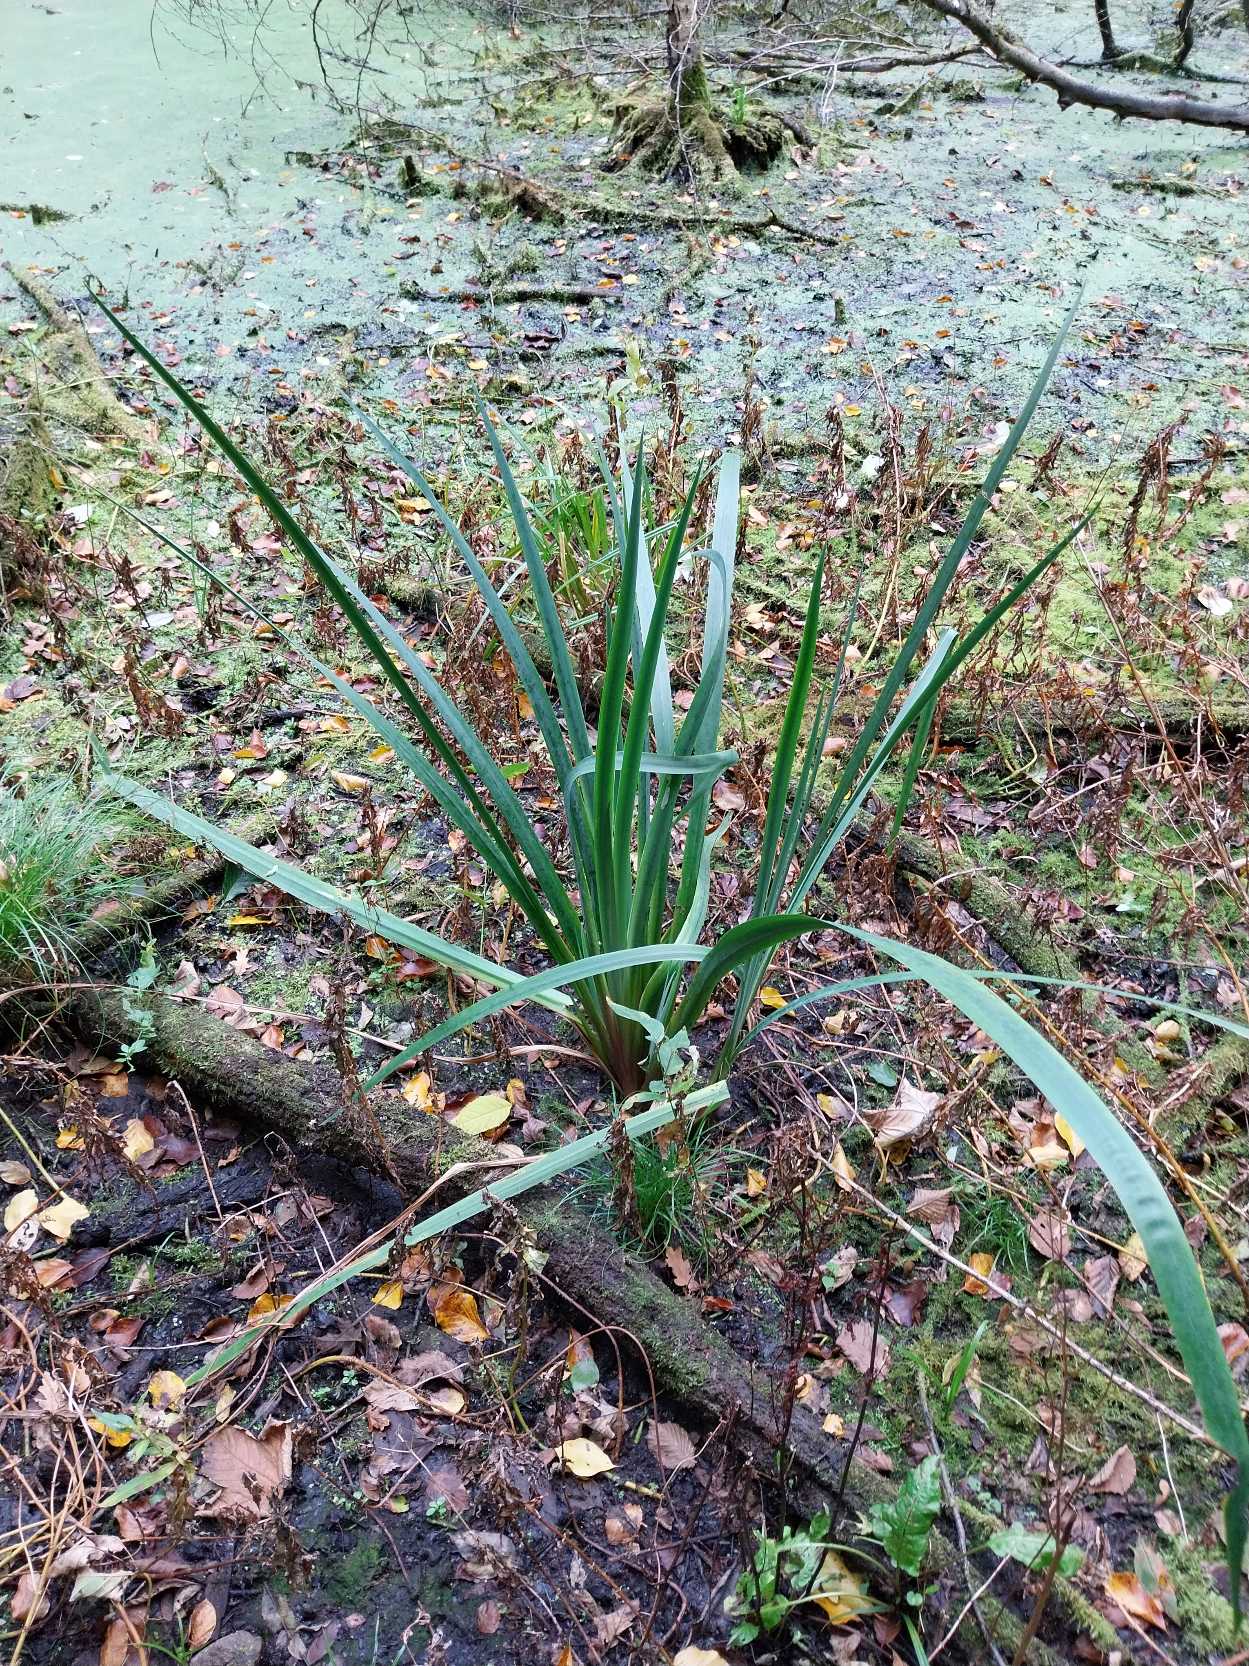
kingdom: Plantae
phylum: Tracheophyta
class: Liliopsida
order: Asparagales
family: Iridaceae
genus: Iris
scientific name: Iris pseudacorus
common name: Gul iris
